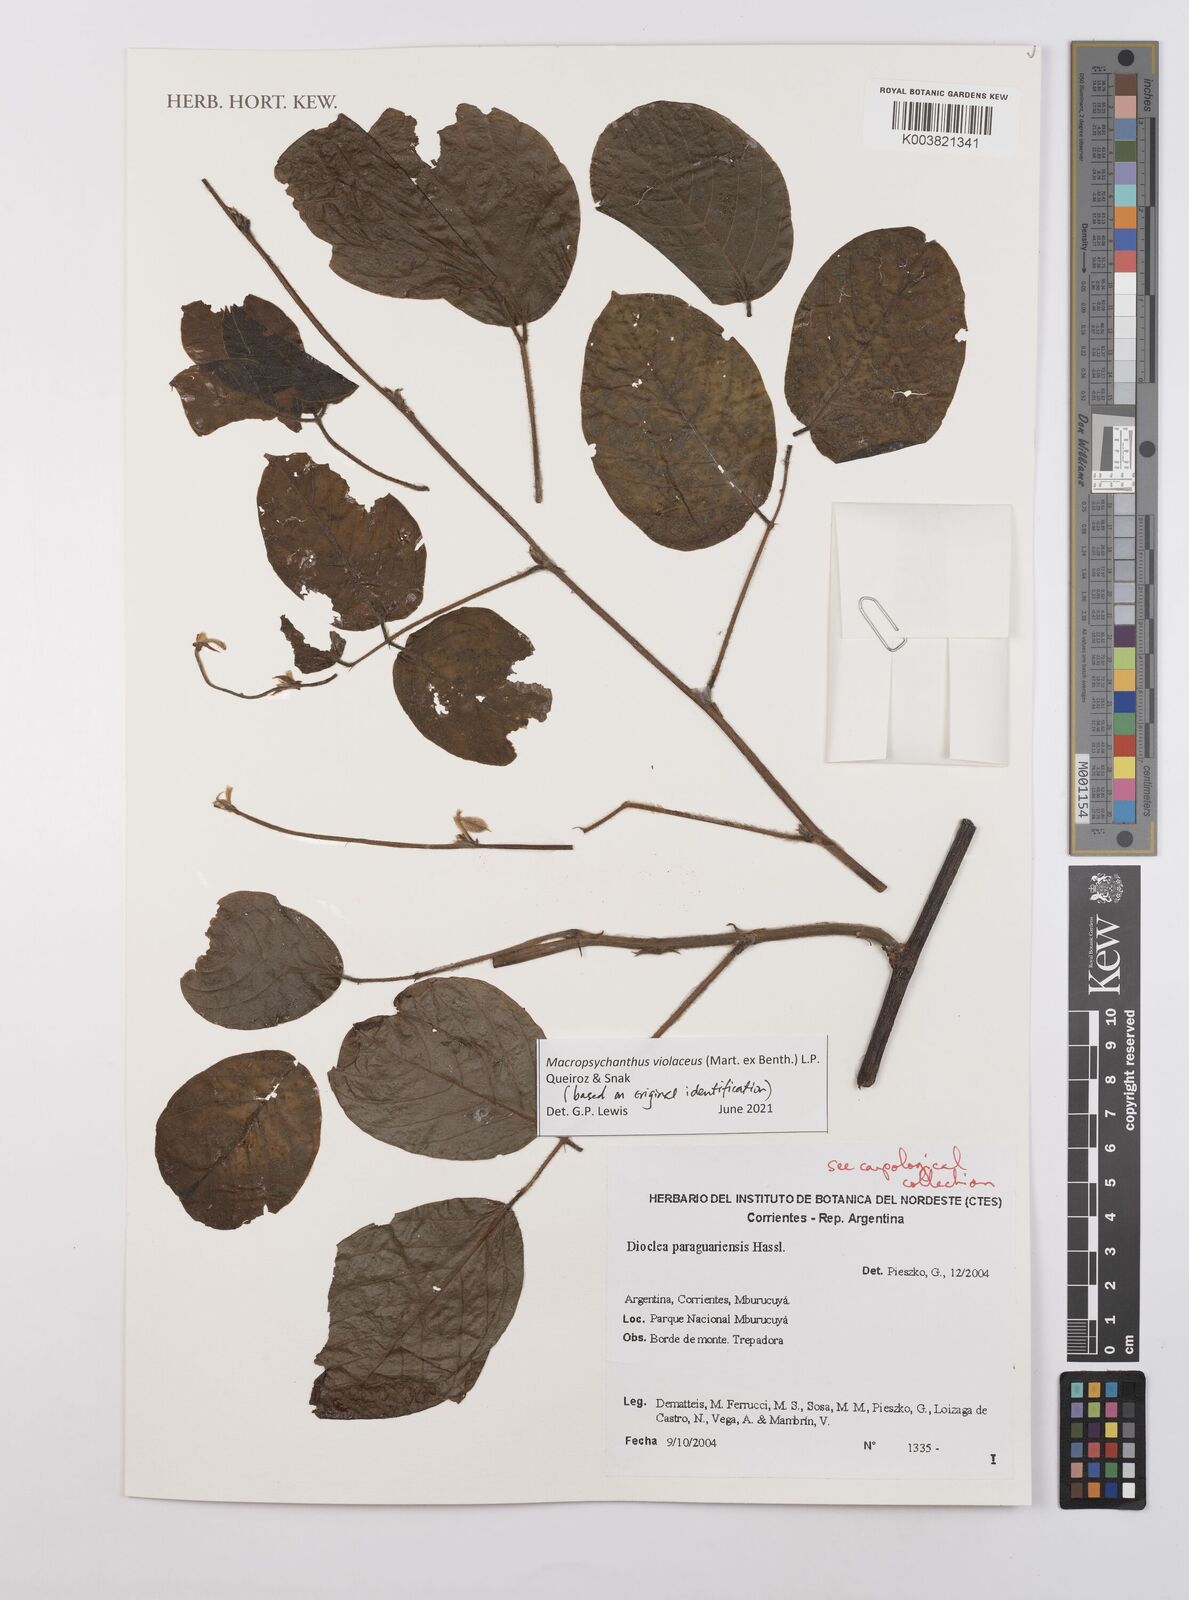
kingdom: Plantae
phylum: Tracheophyta
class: Magnoliopsida
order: Fabales
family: Fabaceae
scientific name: Fabaceae
